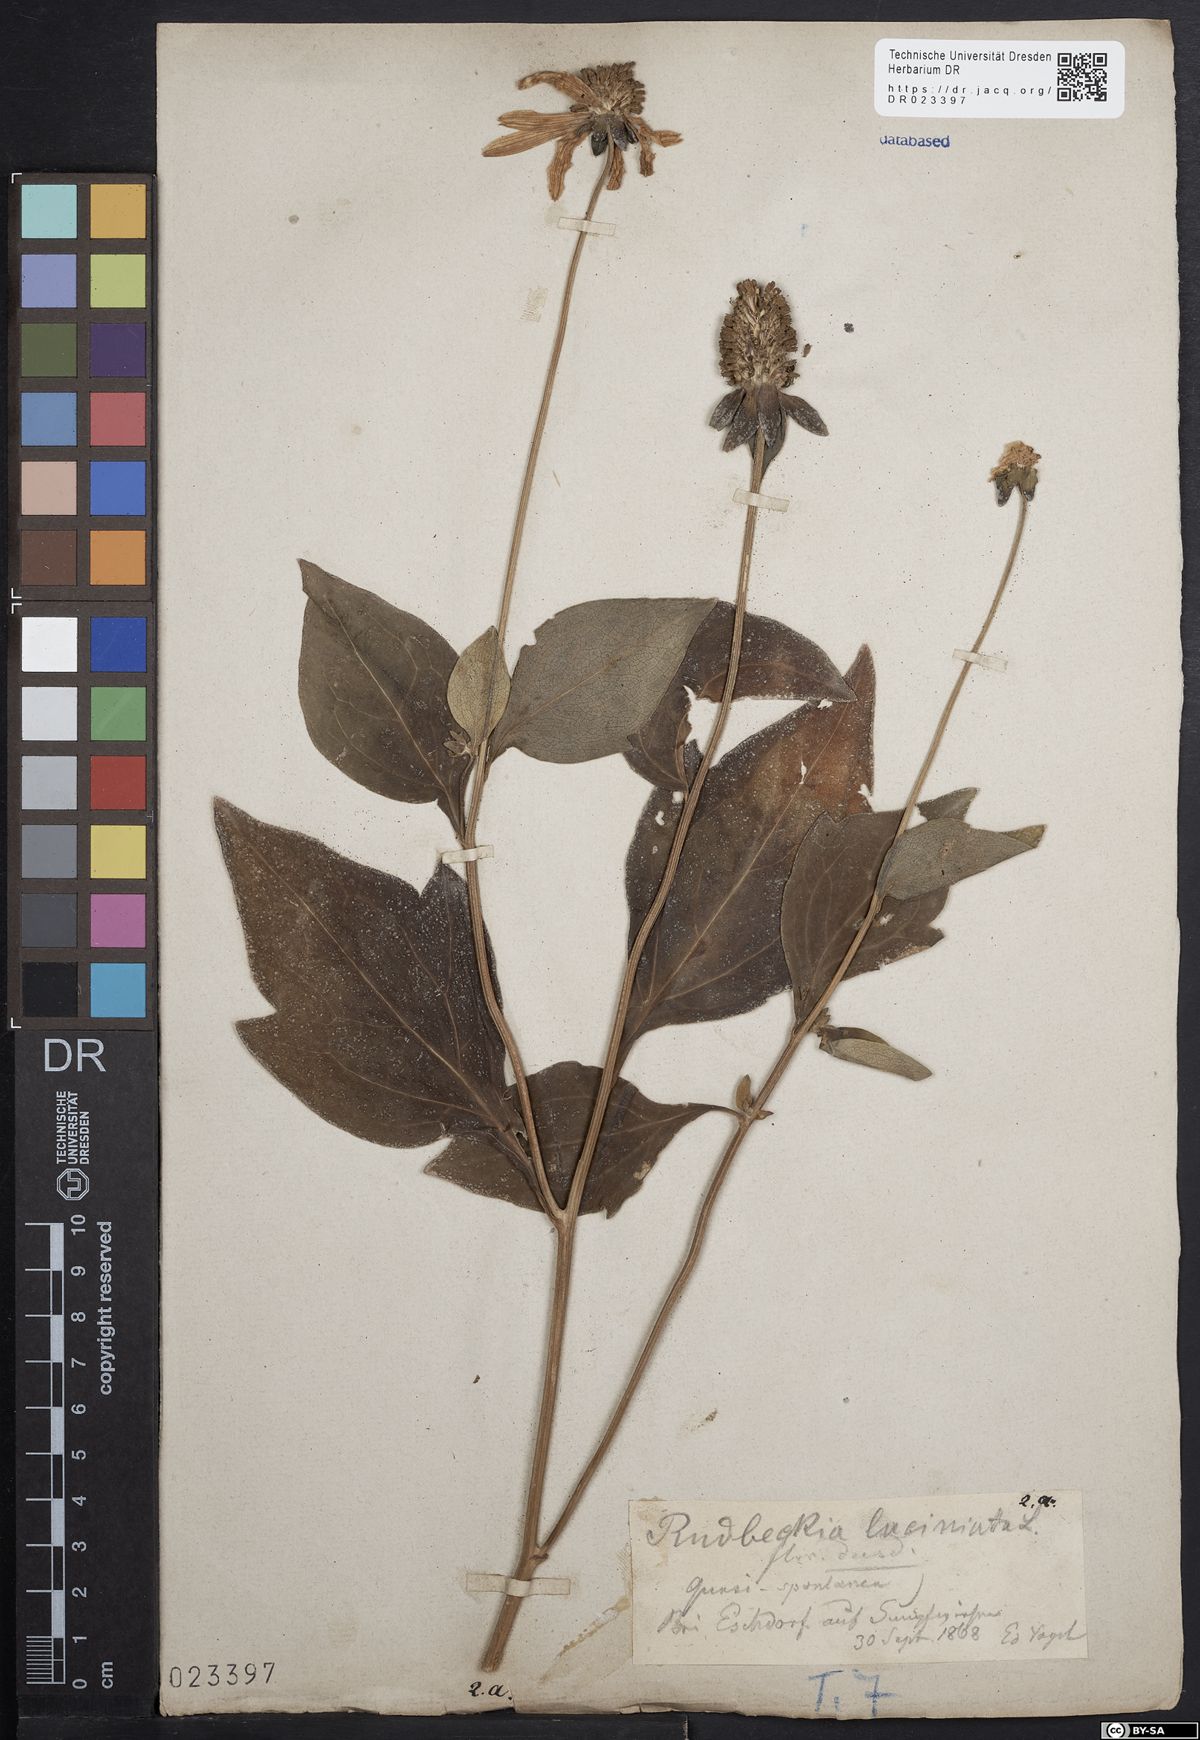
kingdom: Plantae
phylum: Tracheophyta
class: Magnoliopsida
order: Asterales
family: Asteraceae
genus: Rudbeckia
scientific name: Rudbeckia laciniata
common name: Coneflower
